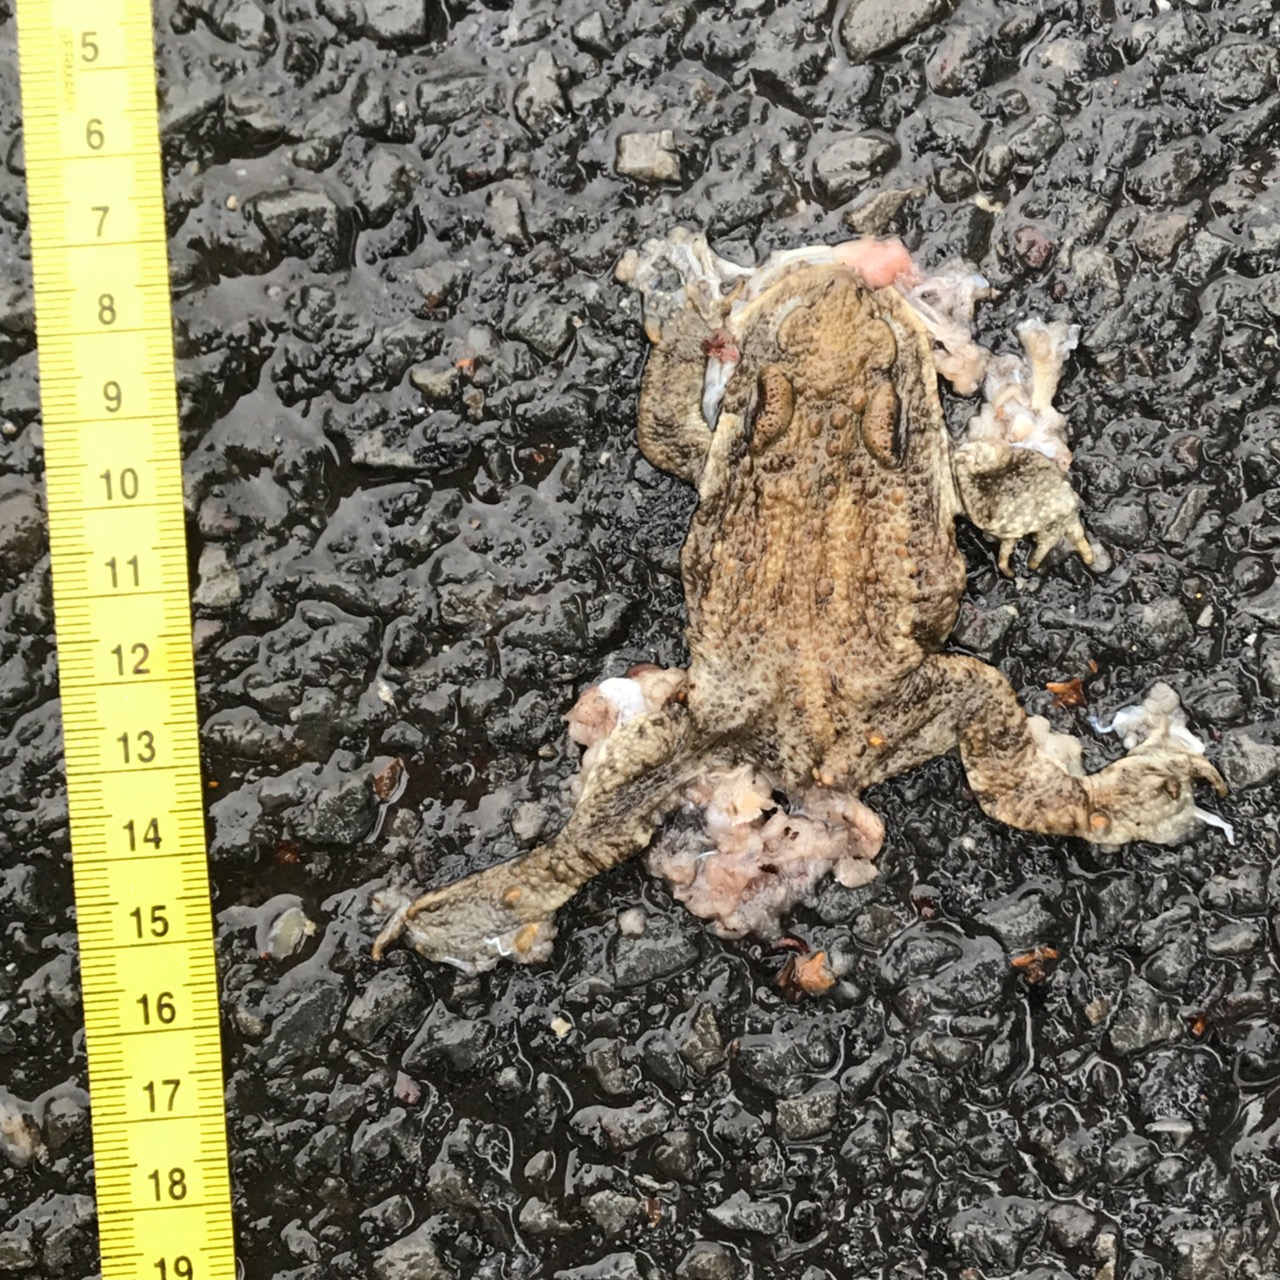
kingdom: Animalia
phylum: Chordata
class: Amphibia
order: Anura
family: Bufonidae
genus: Bufo
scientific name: Bufo bufo
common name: Common toad
